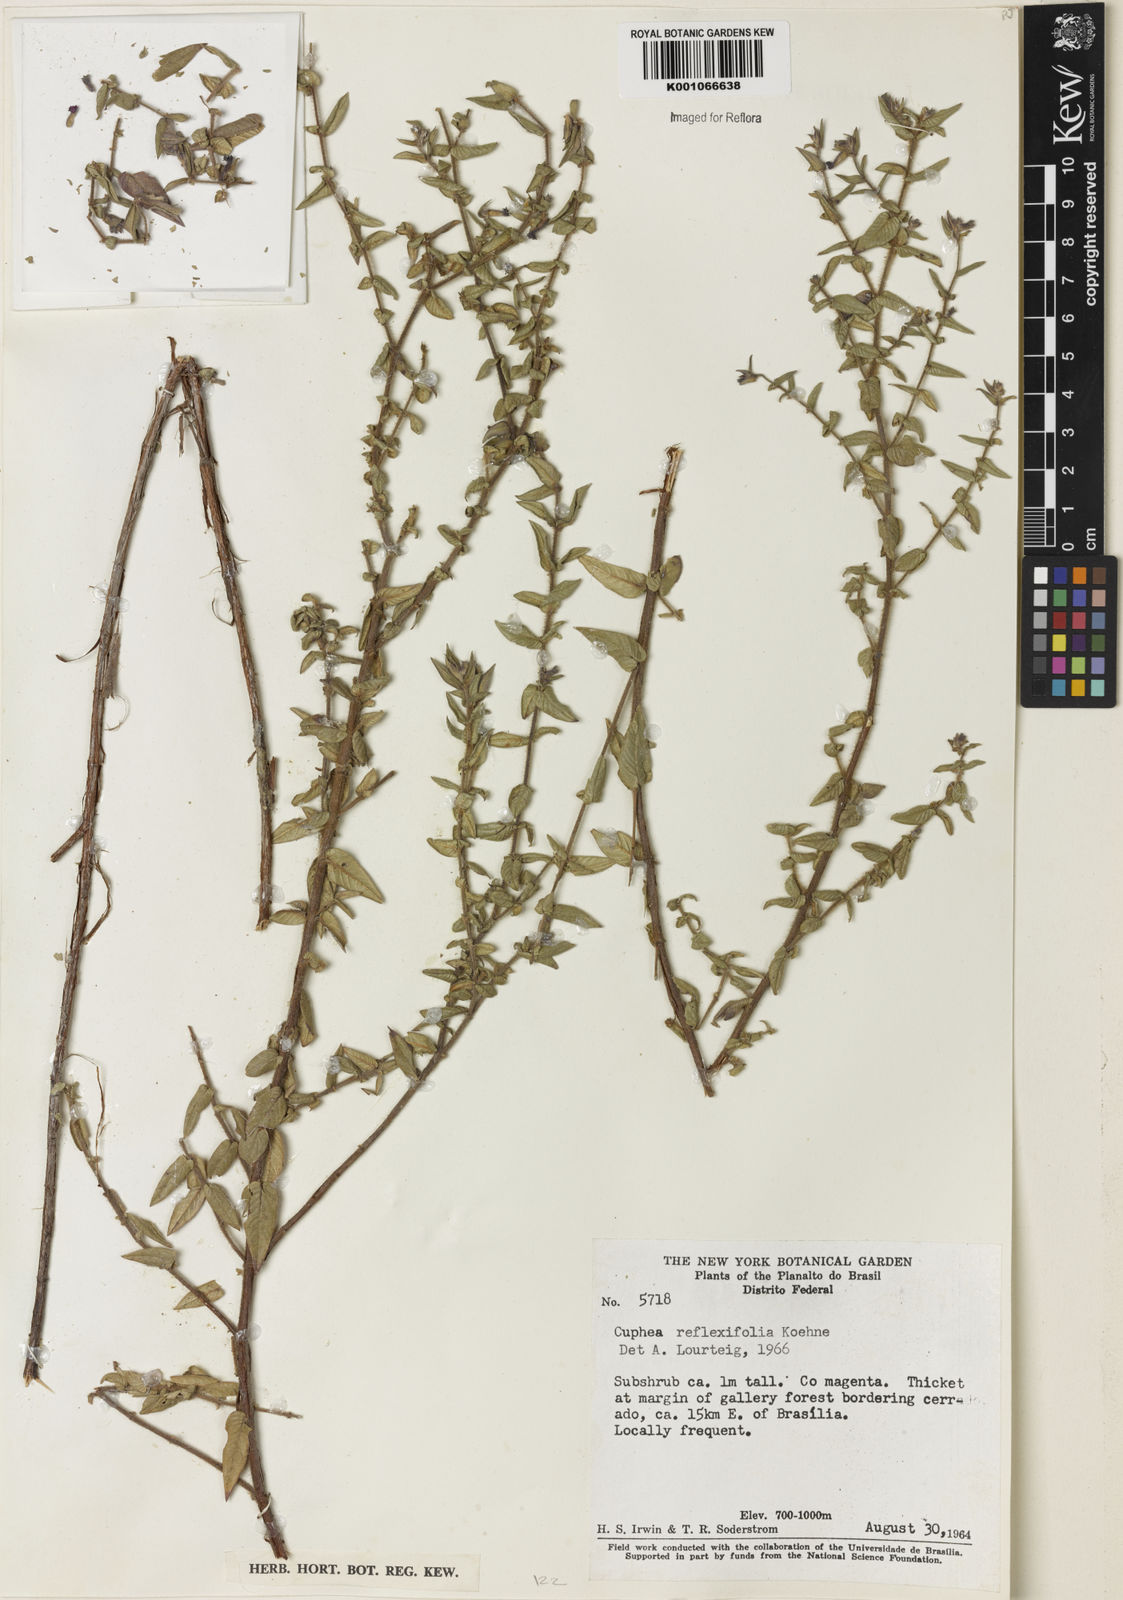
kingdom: Plantae
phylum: Tracheophyta
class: Magnoliopsida
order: Myrtales
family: Lythraceae
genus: Cuphea
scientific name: Cuphea sessiliflora
